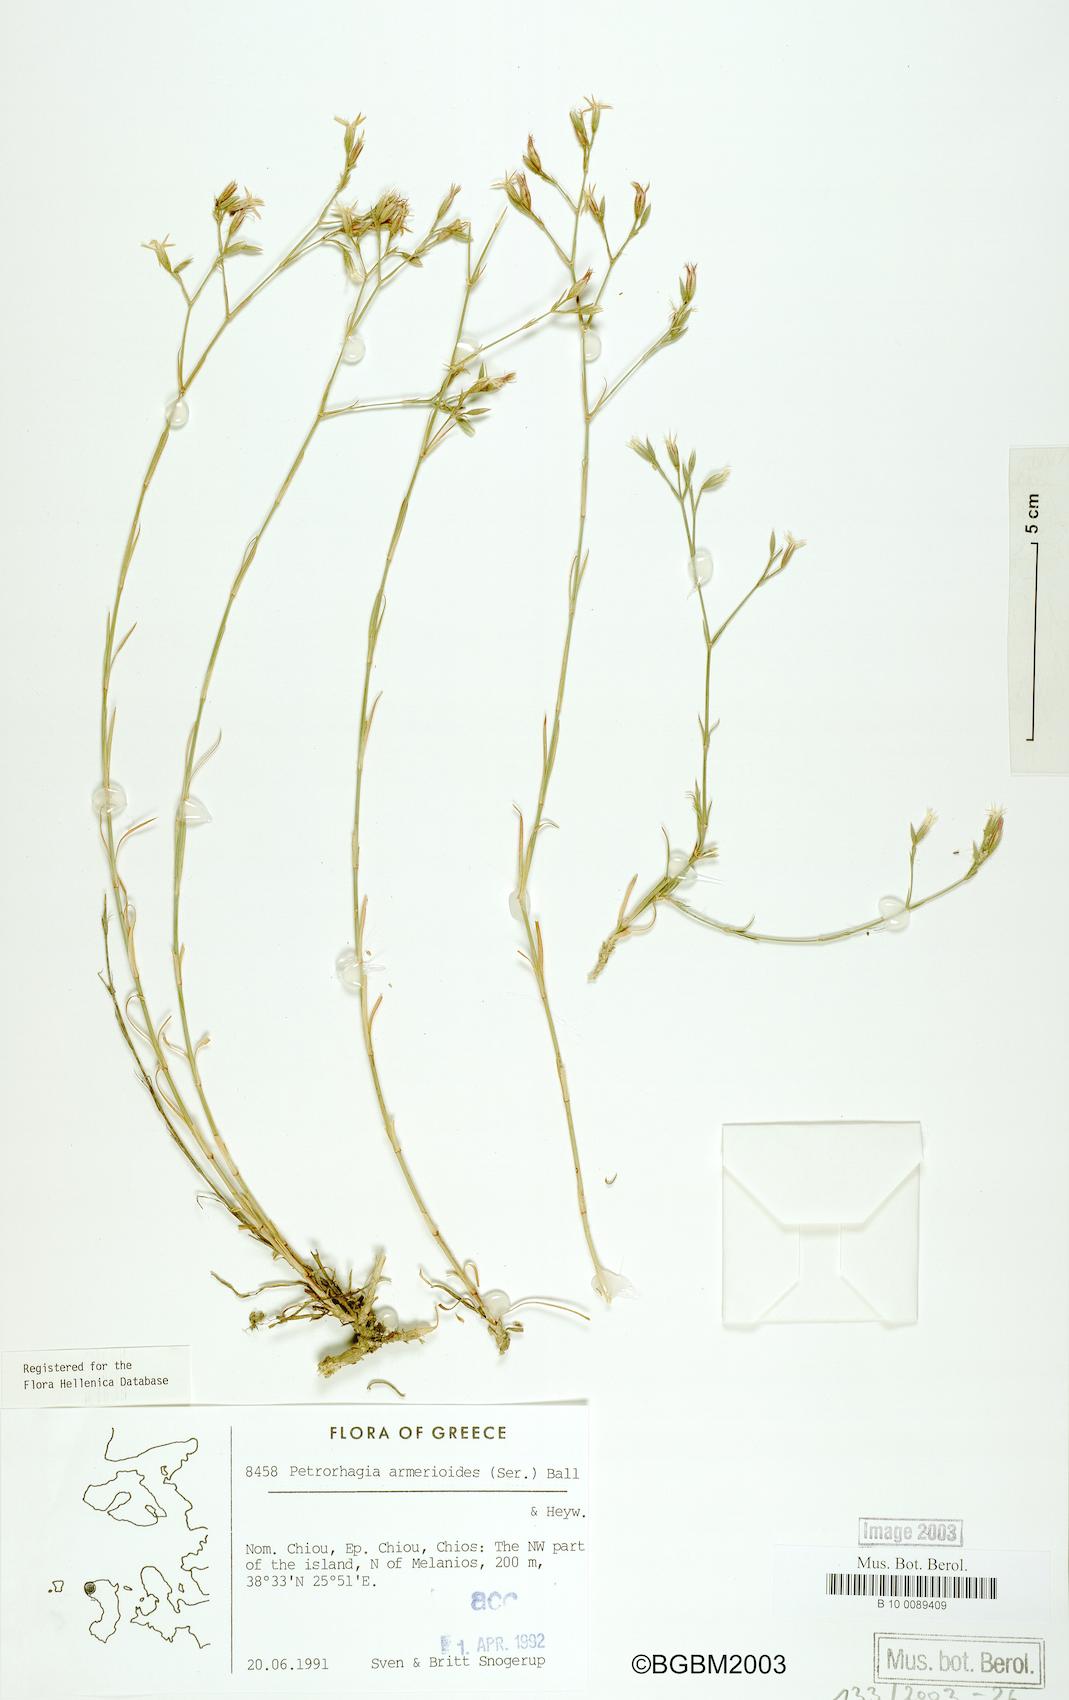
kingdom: Plantae
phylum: Tracheophyta
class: Magnoliopsida
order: Caryophyllales
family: Caryophyllaceae
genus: Dianthus
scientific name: Dianthus tunicoides
